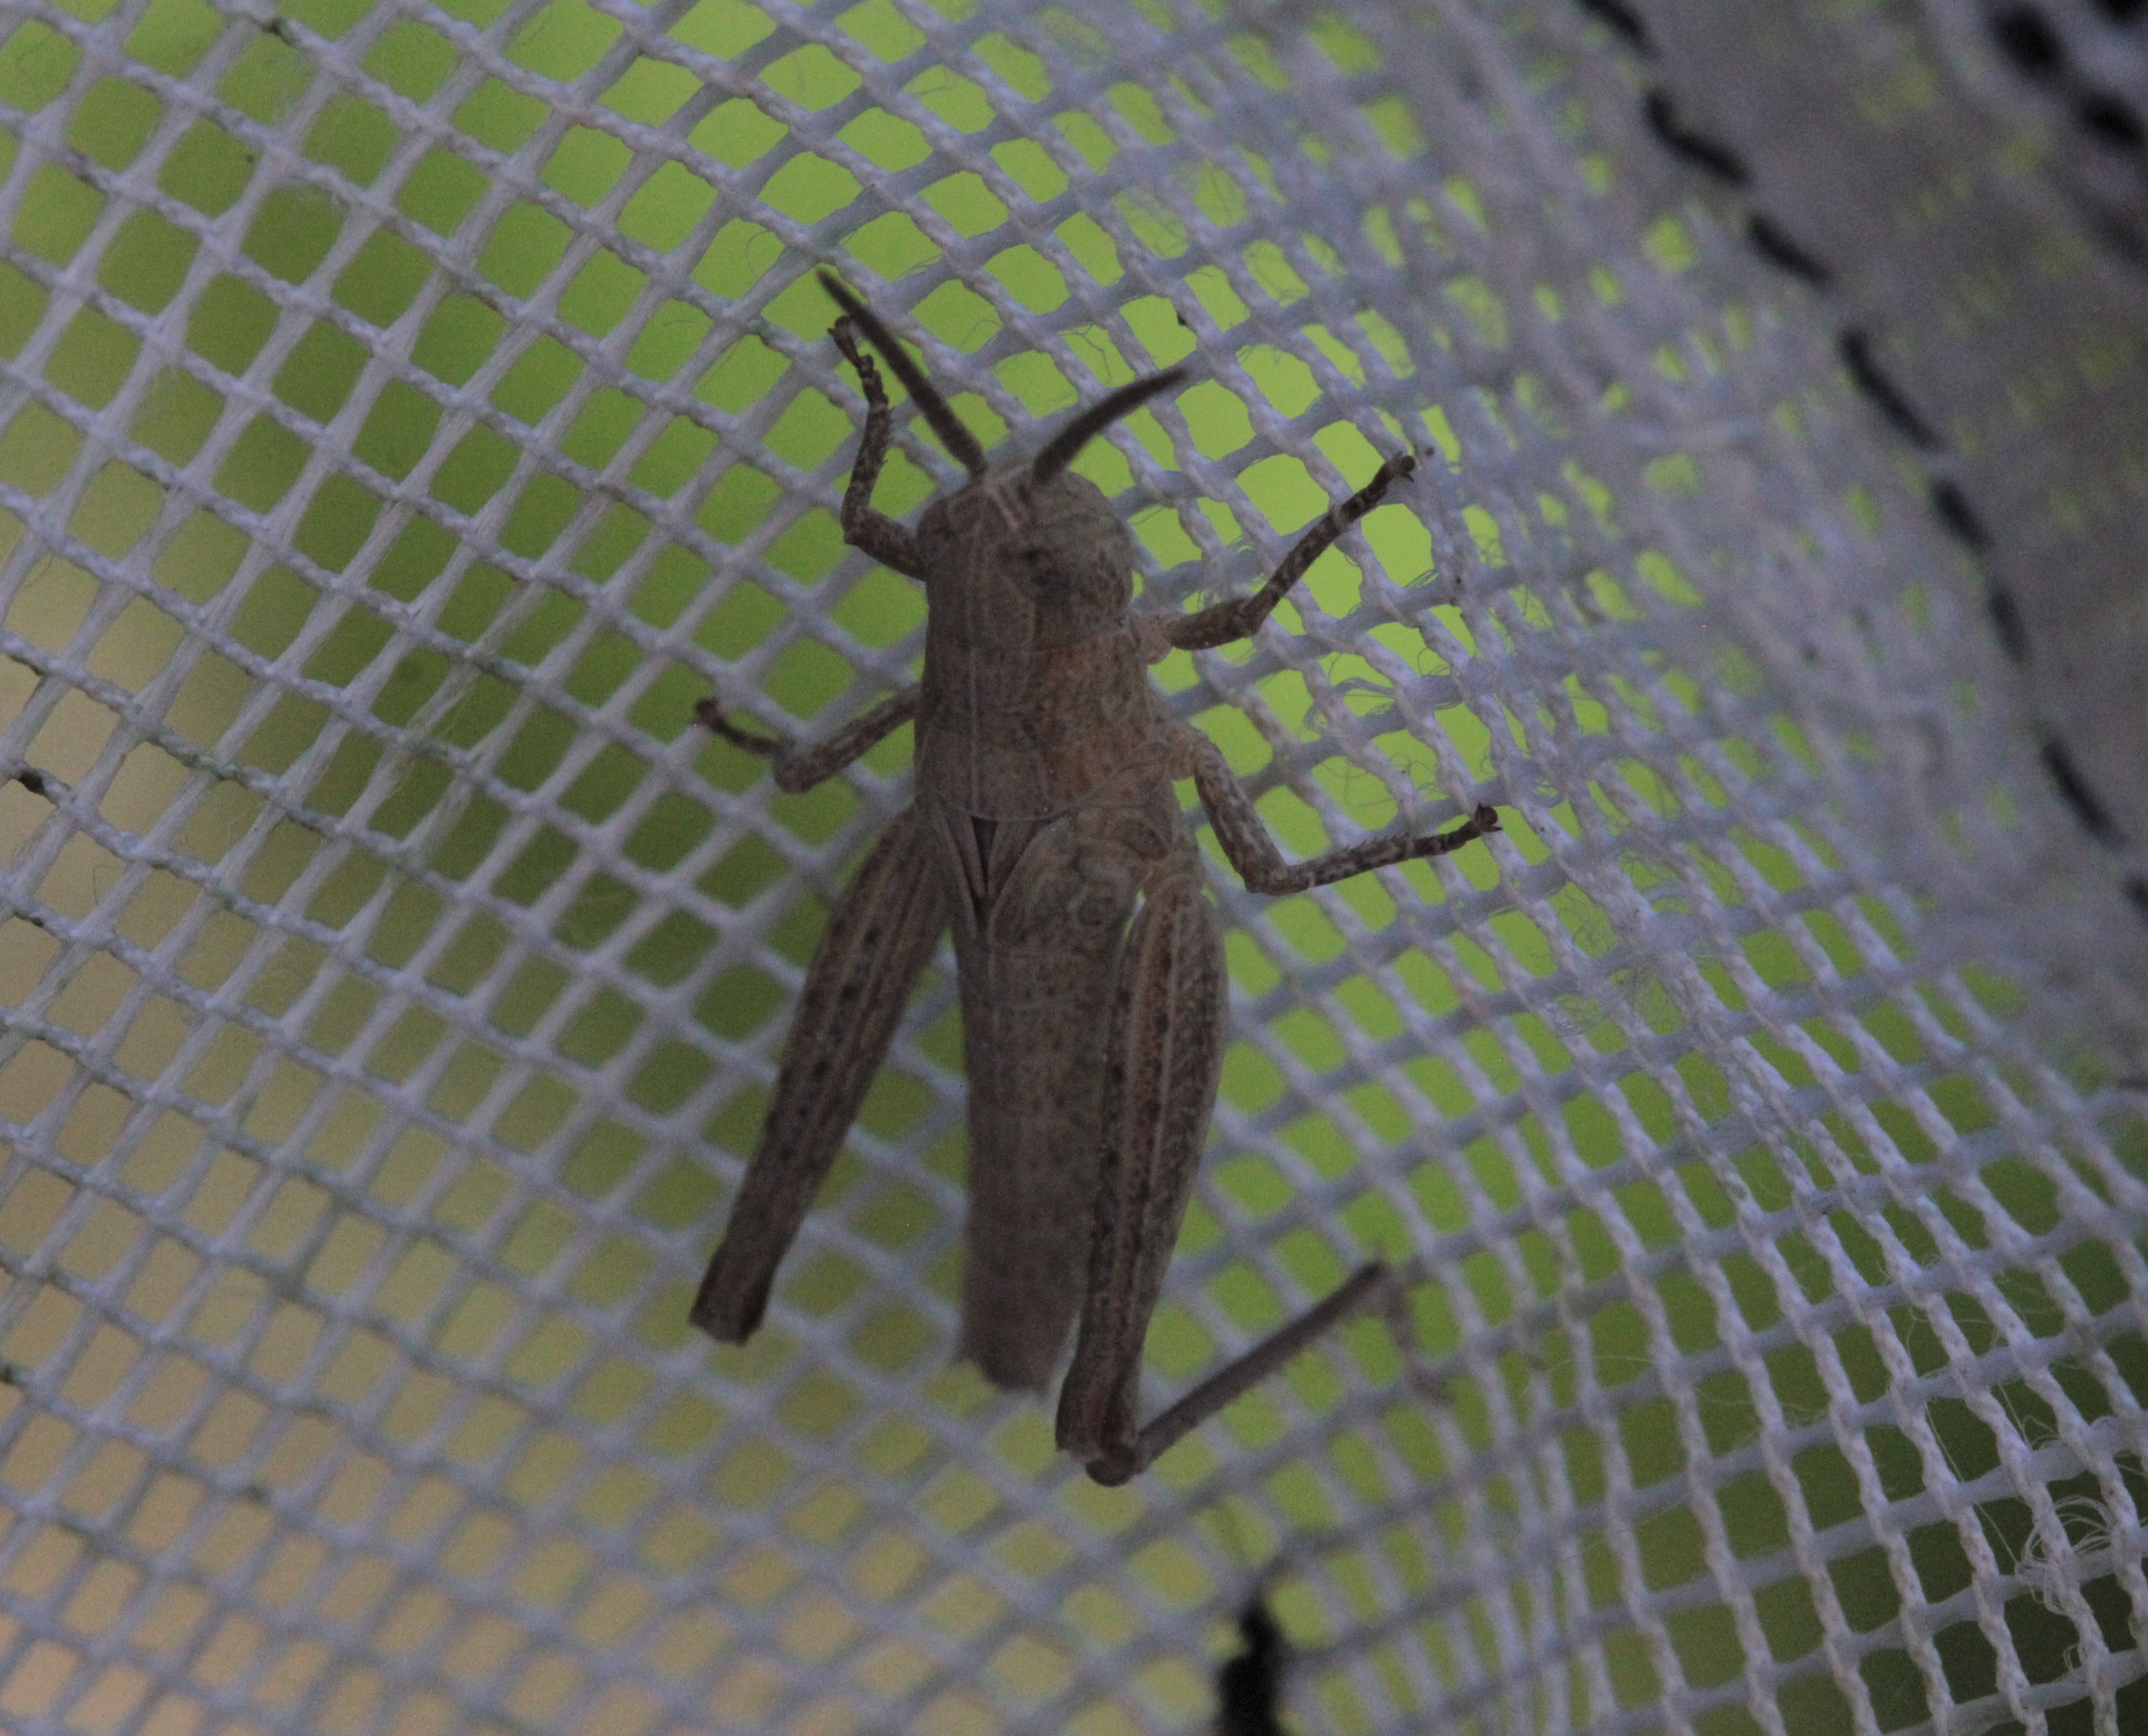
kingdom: Animalia
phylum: Arthropoda
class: Insecta
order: Orthoptera
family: Acrididae
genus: Chorthippus
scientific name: Chorthippus brunneus
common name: Field grasshopper
